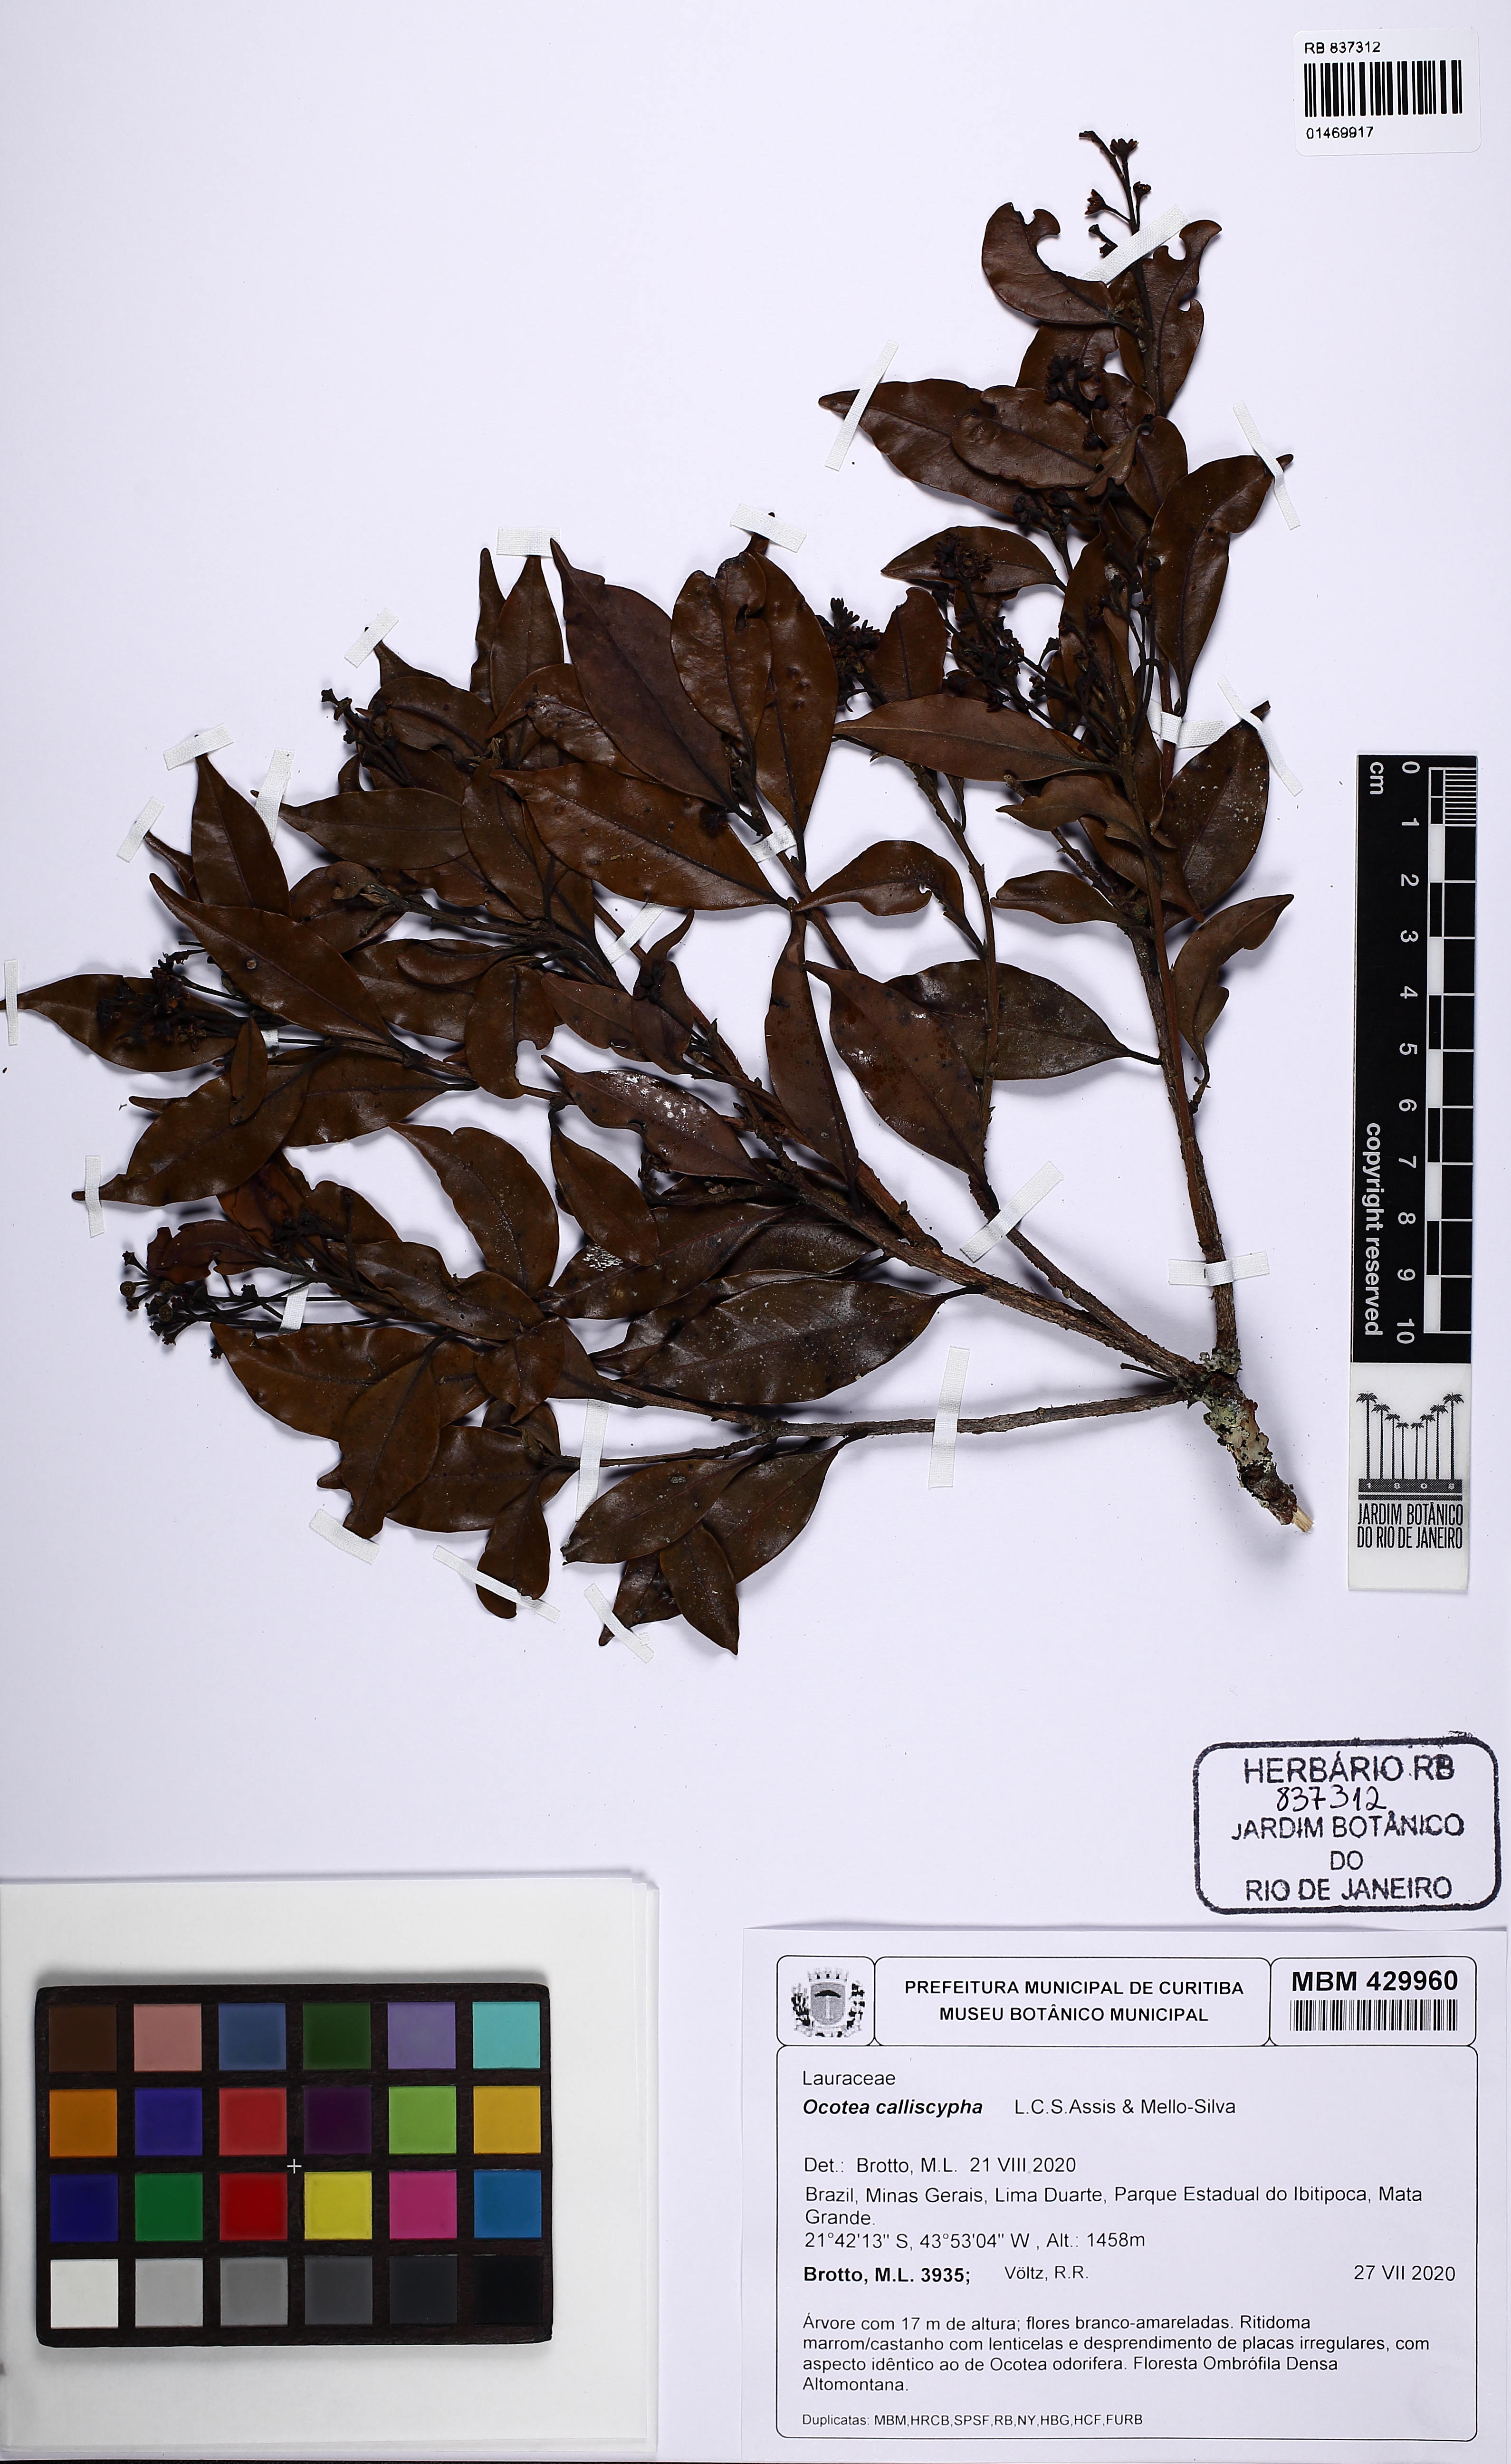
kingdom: Plantae
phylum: Tracheophyta
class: Magnoliopsida
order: Laurales
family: Lauraceae
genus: Ocotea
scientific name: Ocotea calliscypha
